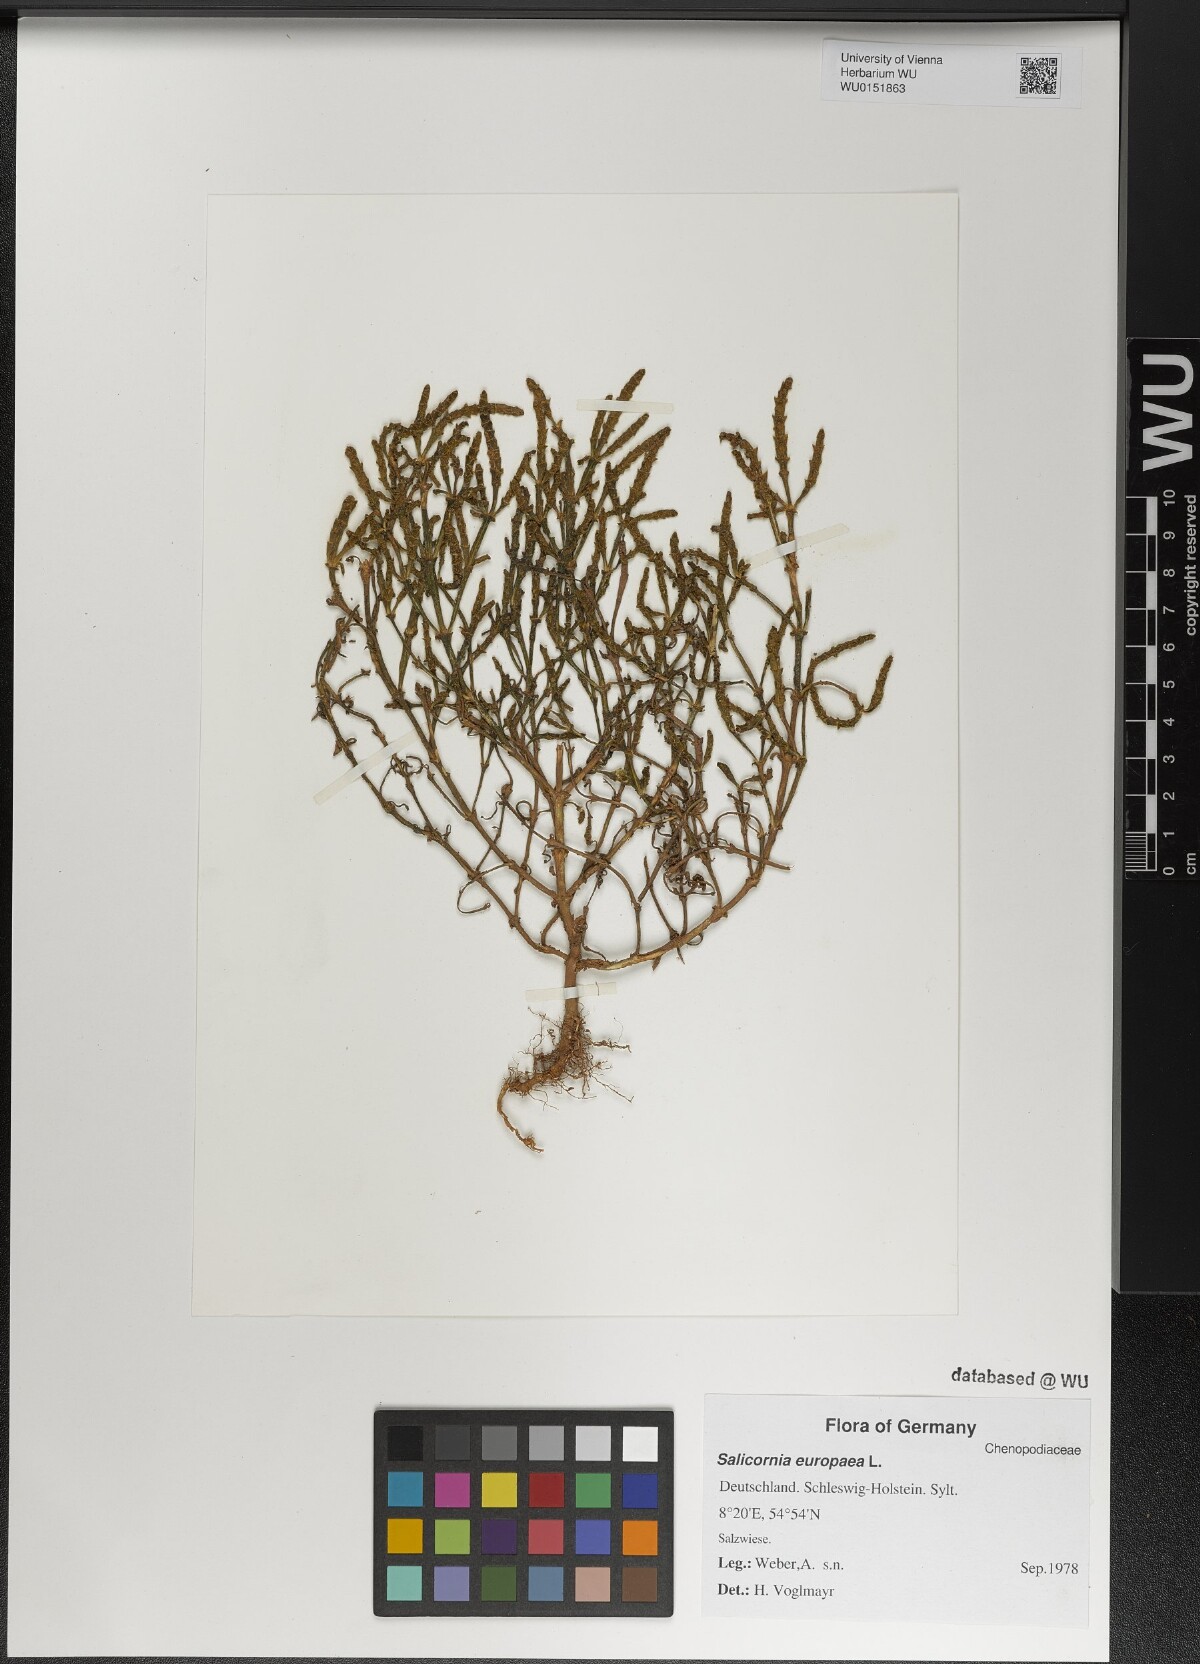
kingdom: Plantae
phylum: Tracheophyta
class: Magnoliopsida
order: Caryophyllales
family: Amaranthaceae
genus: Salicornia
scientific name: Salicornia europaea
